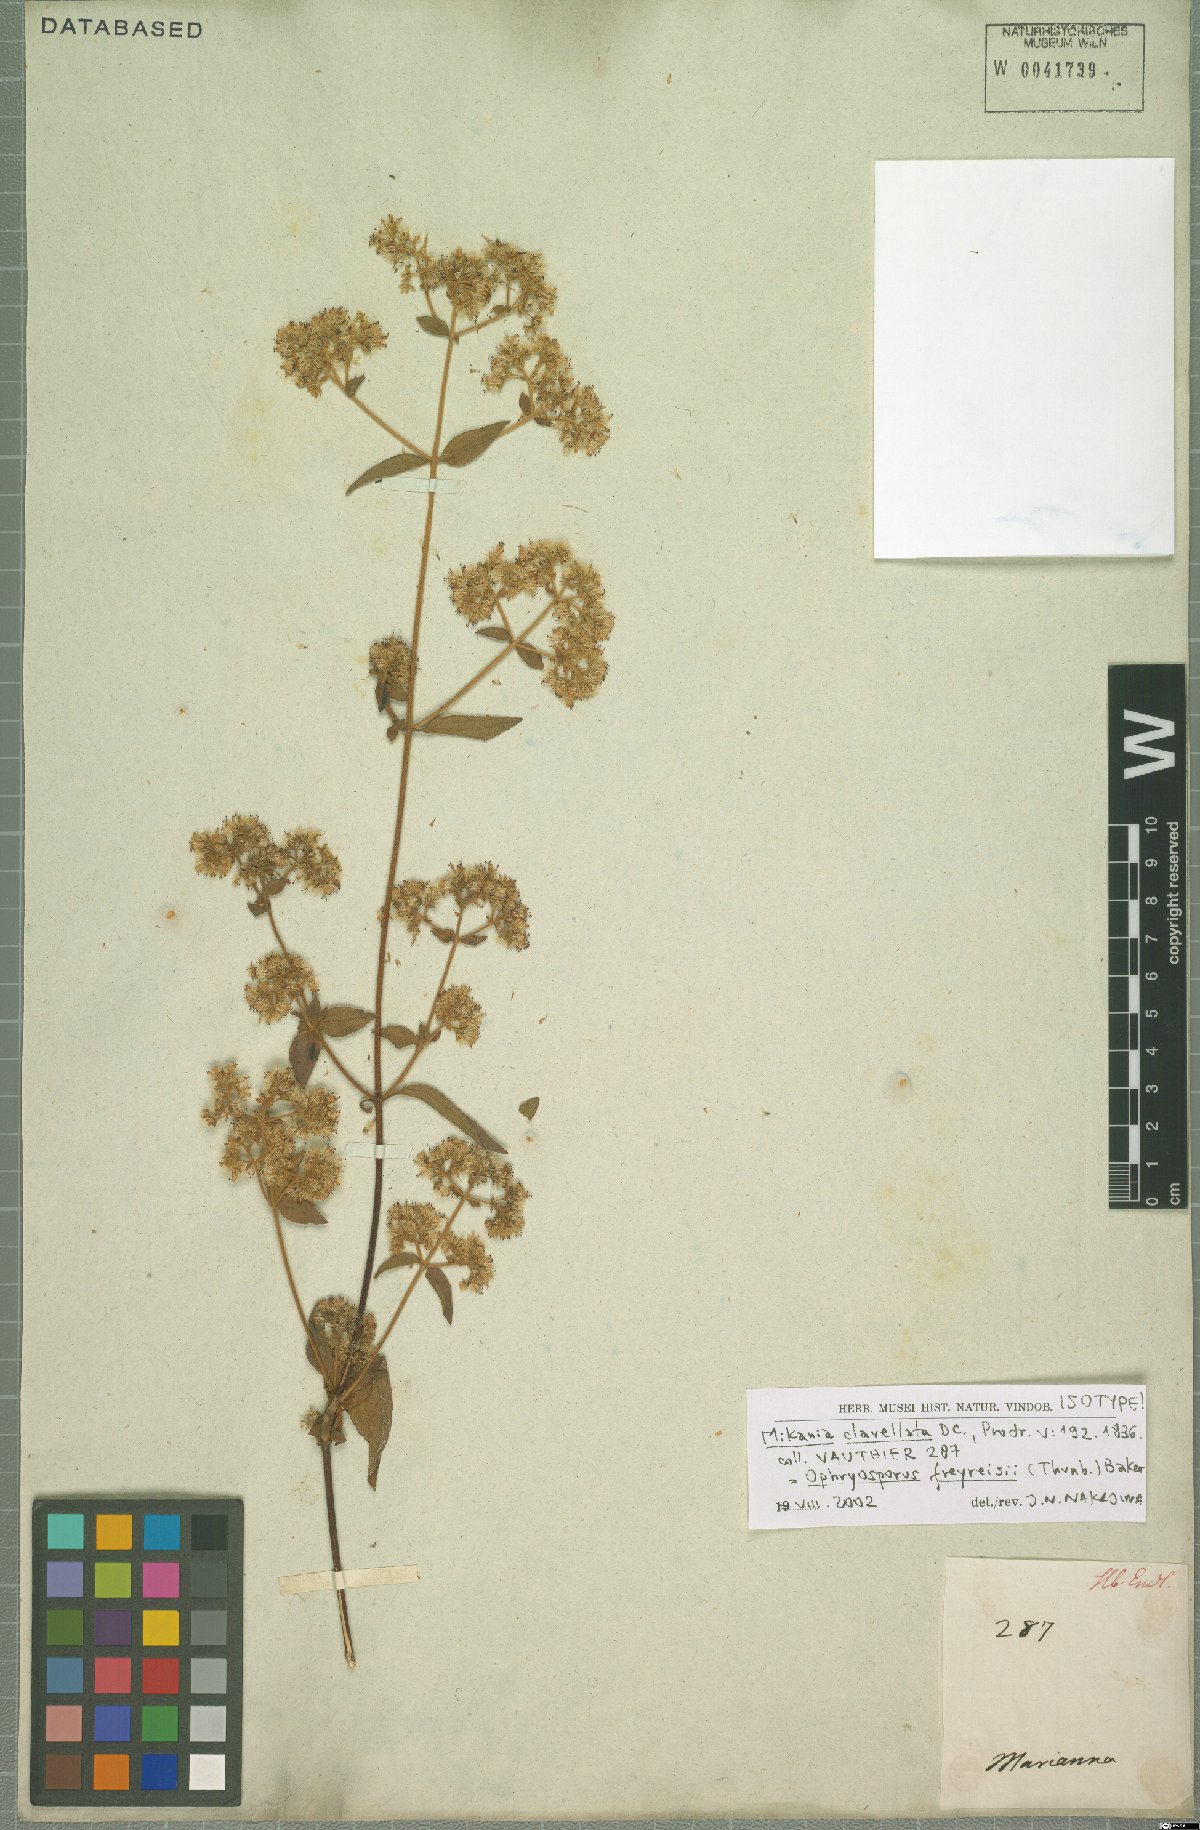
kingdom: Plantae
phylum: Tracheophyta
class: Magnoliopsida
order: Asterales
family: Asteraceae
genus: Ophryosporus
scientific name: Ophryosporus freyreysi
